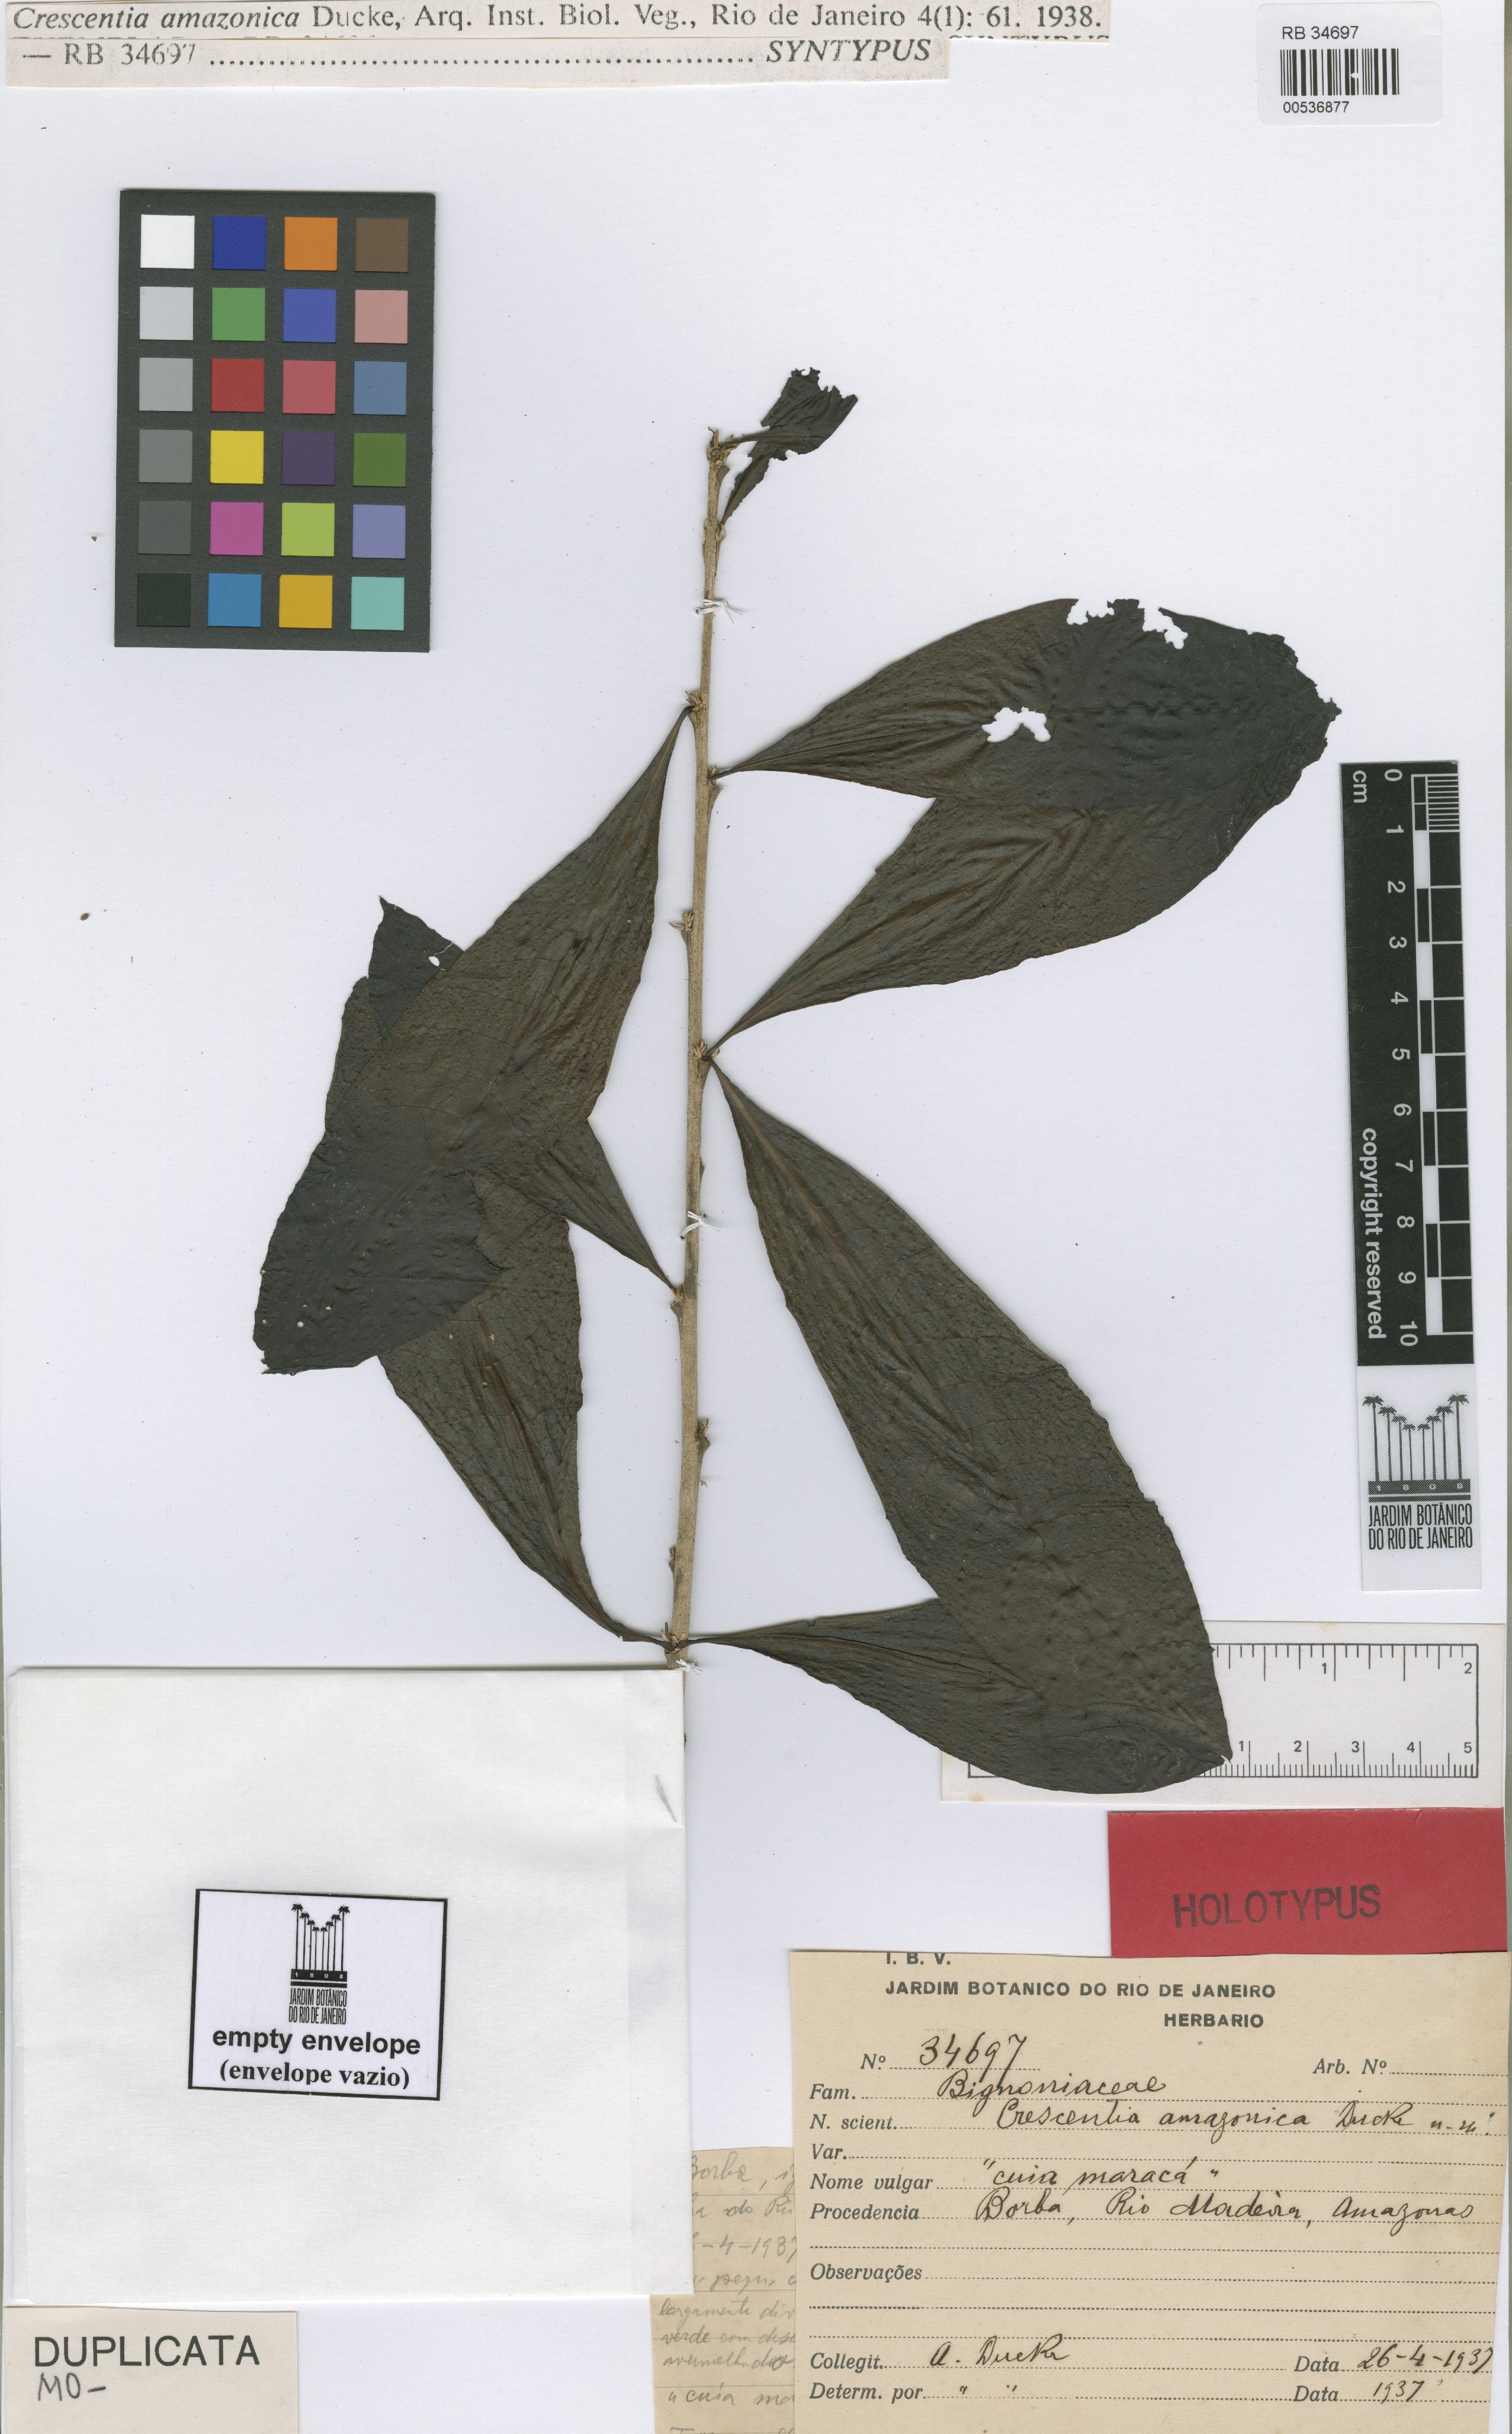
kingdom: Plantae
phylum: Tracheophyta
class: Magnoliopsida
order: Lamiales
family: Bignoniaceae
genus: Crescentia
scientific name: Crescentia amazonica
